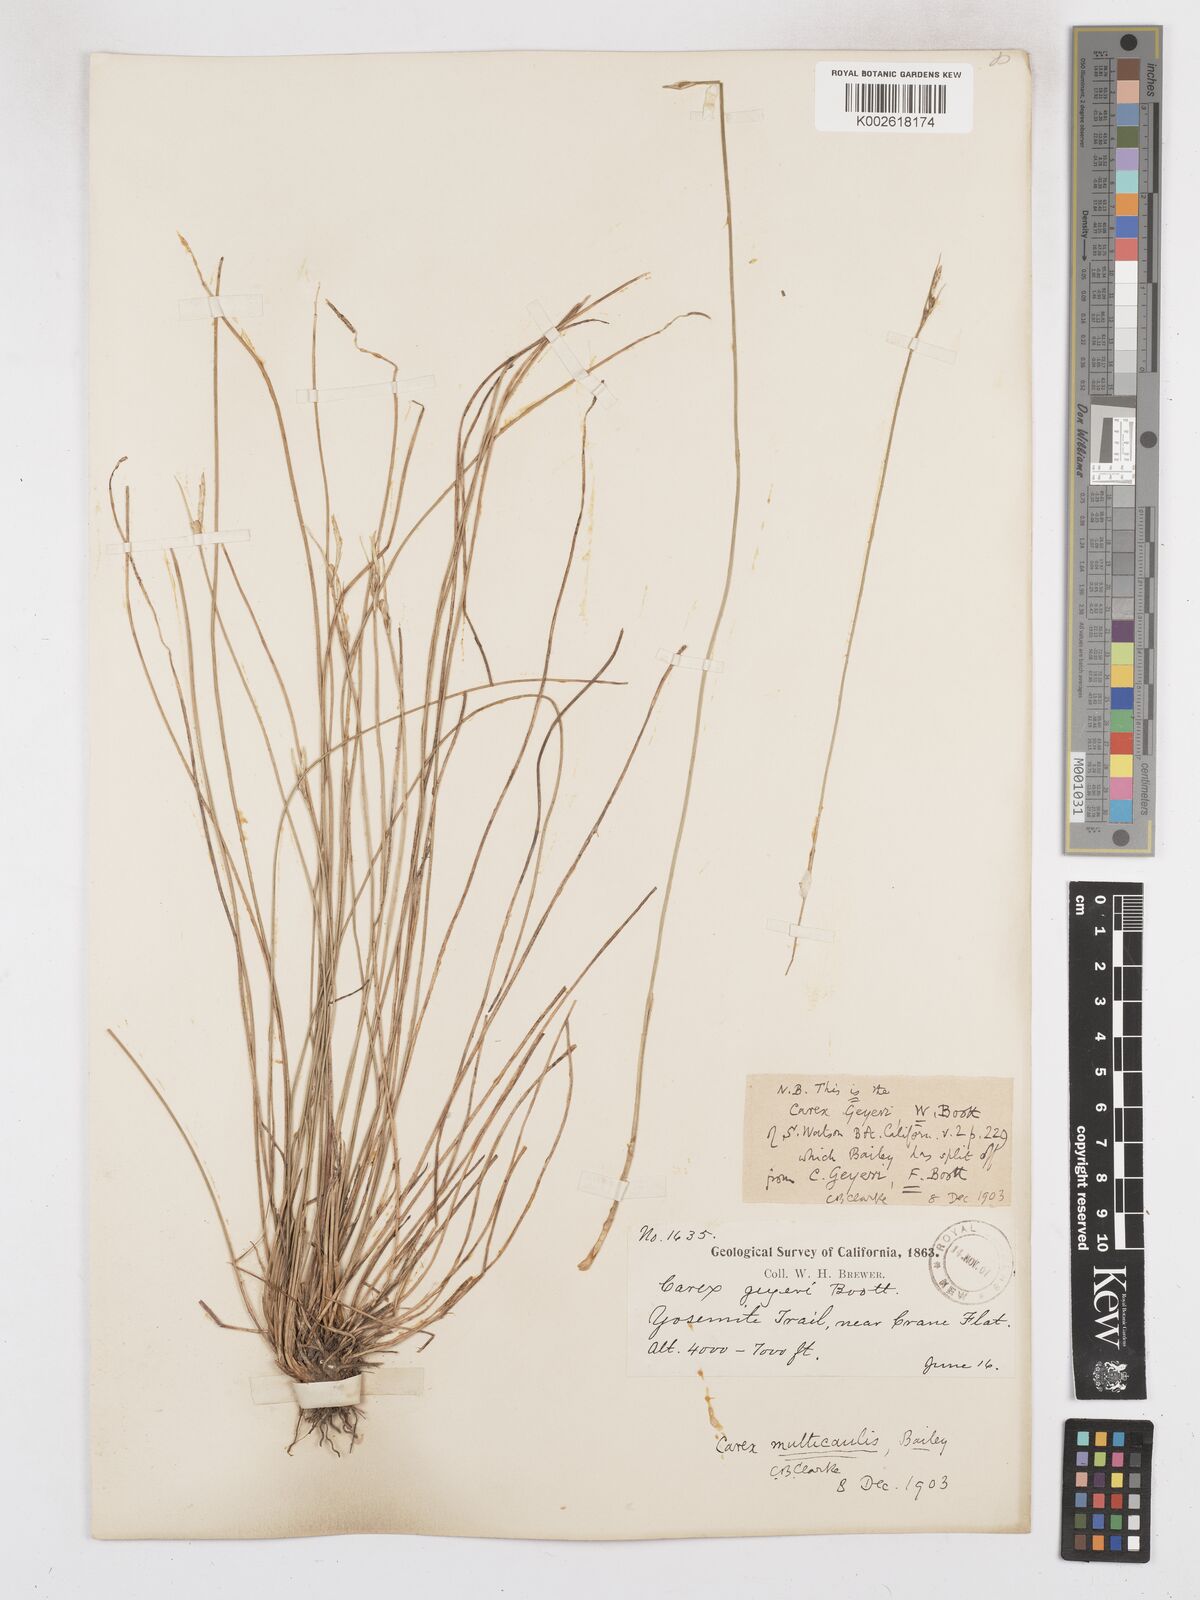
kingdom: Plantae
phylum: Tracheophyta
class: Liliopsida
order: Poales
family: Cyperaceae
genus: Carex
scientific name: Carex multicaulis
